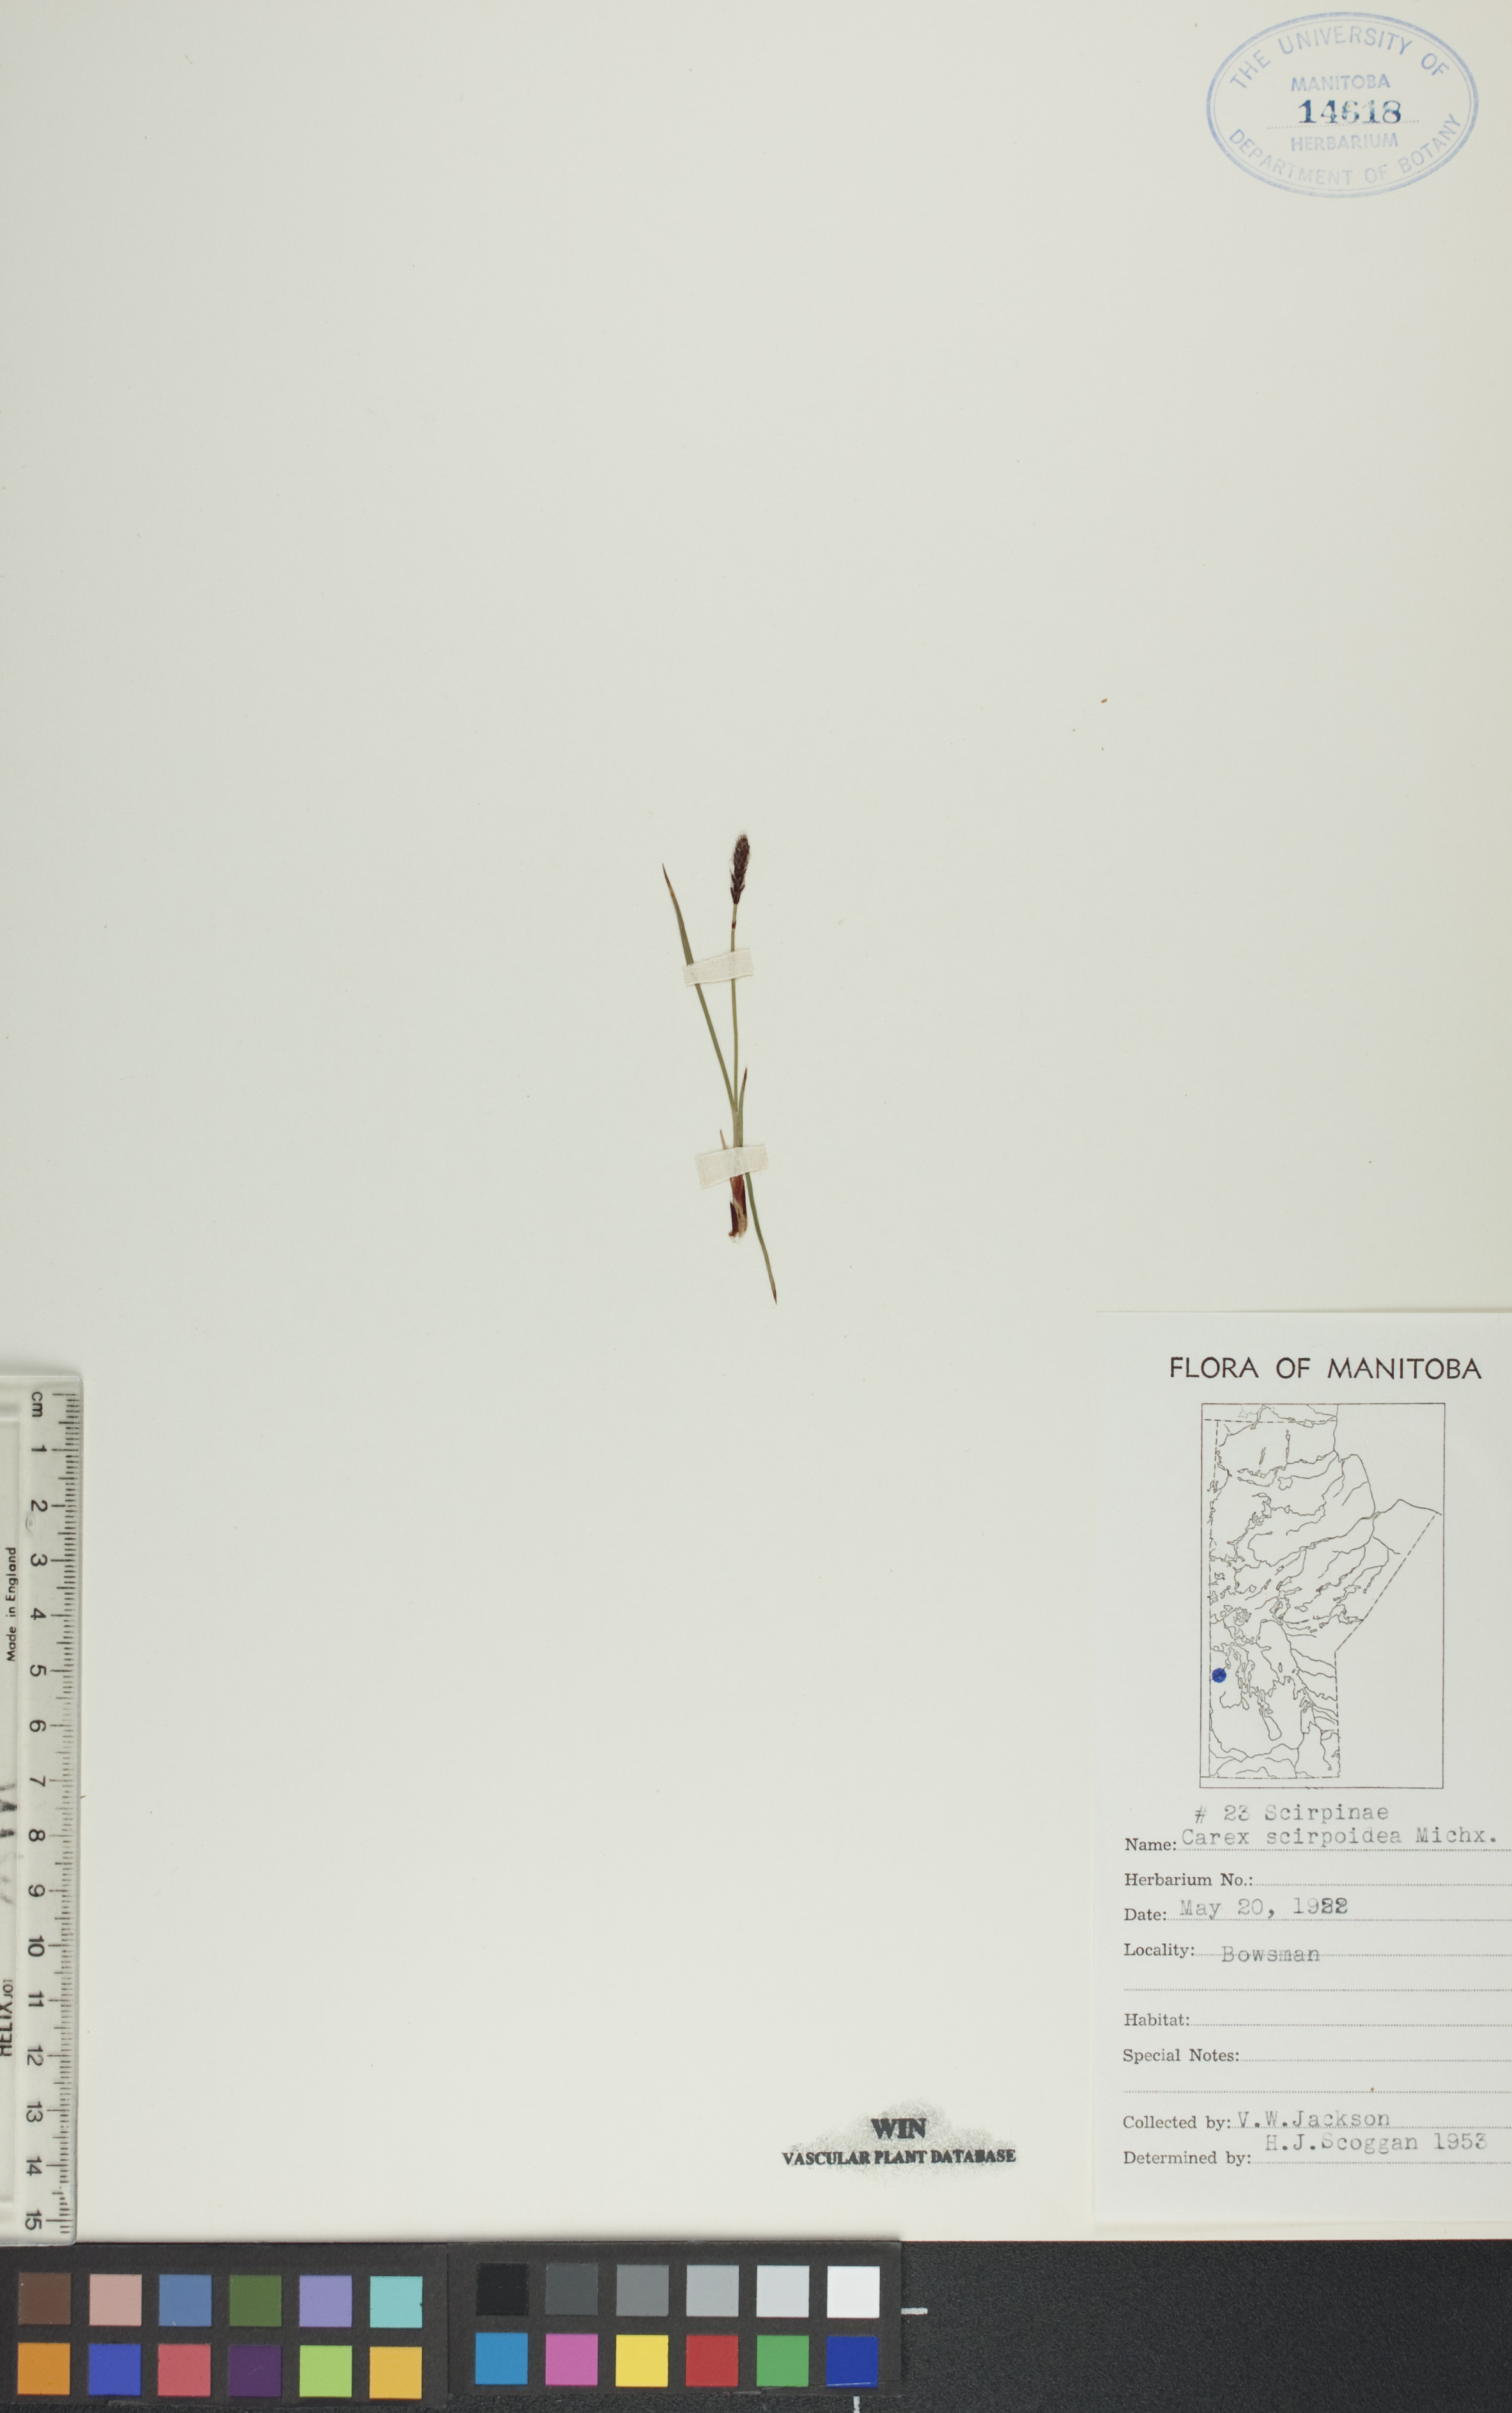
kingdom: Plantae
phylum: Tracheophyta
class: Liliopsida
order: Poales
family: Cyperaceae
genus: Carex
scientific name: Carex scirpoidea
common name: Canada single-spike sedge
